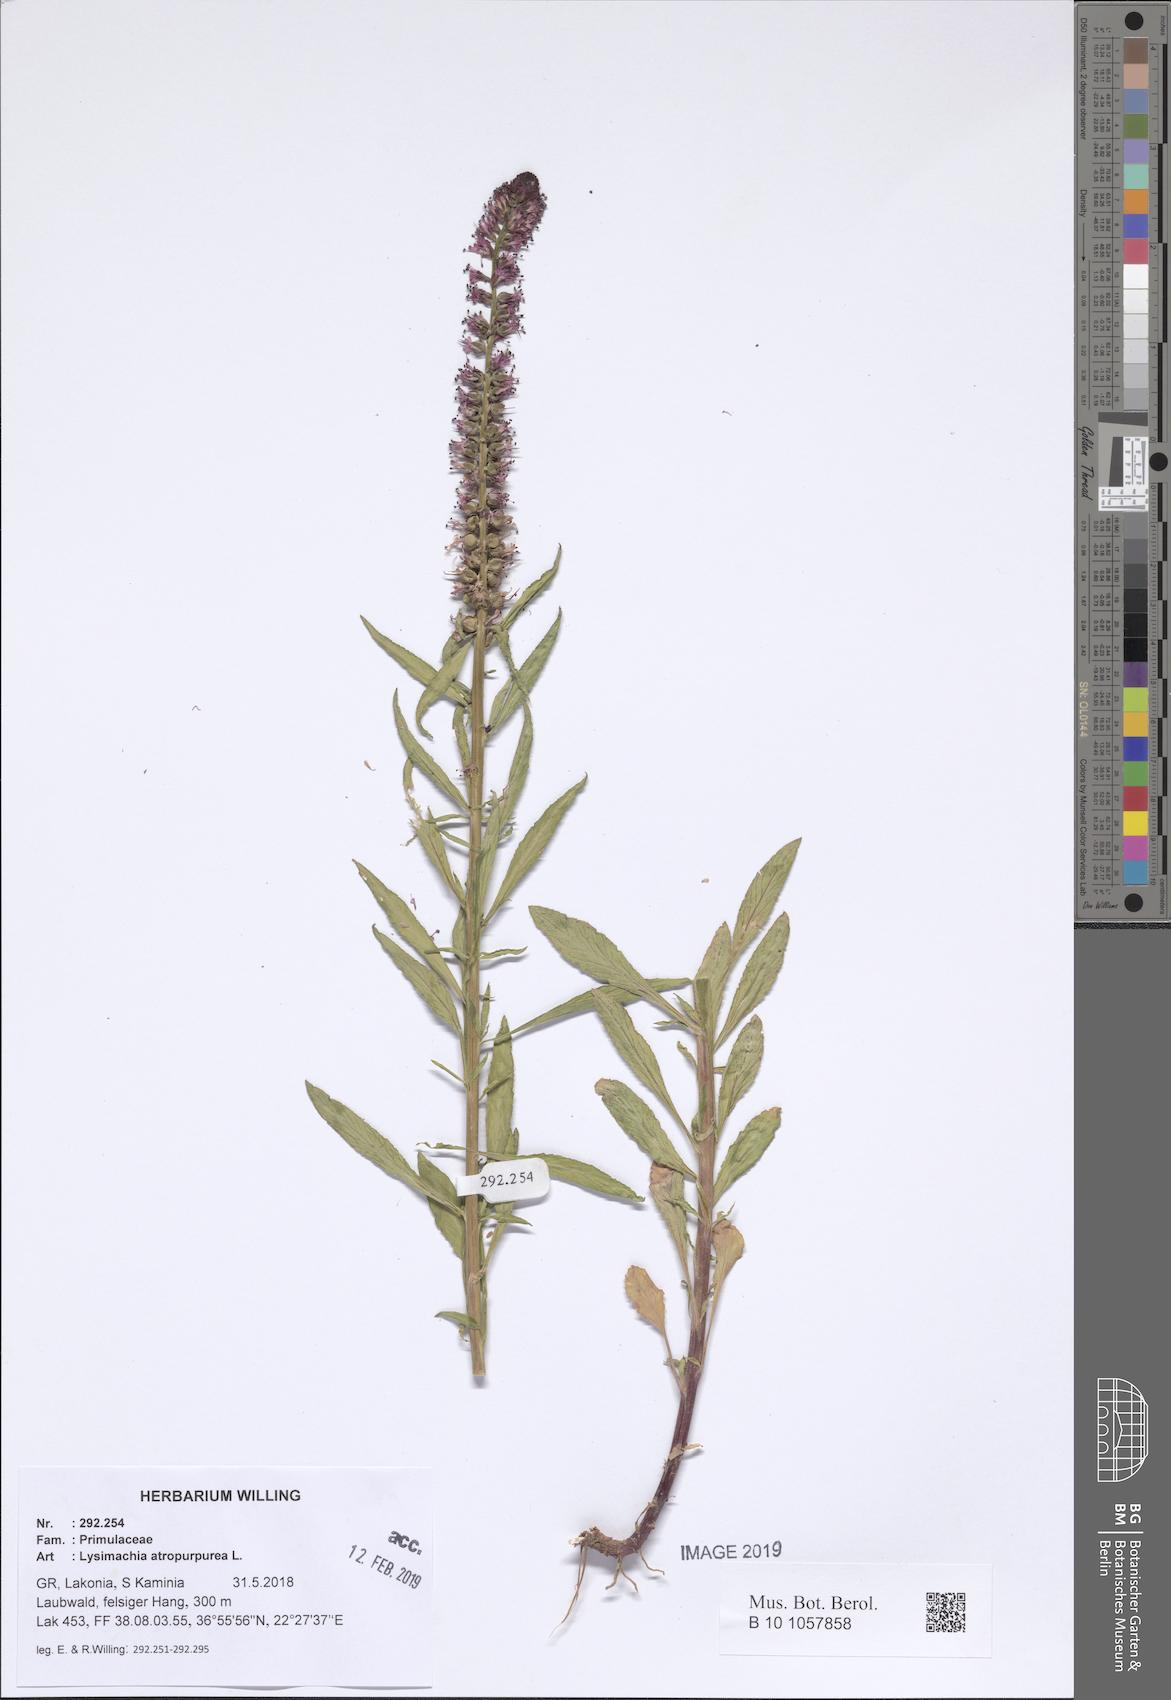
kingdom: Plantae
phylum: Tracheophyta
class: Magnoliopsida
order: Ericales
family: Primulaceae
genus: Lysimachia
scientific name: Lysimachia atropurpurea
